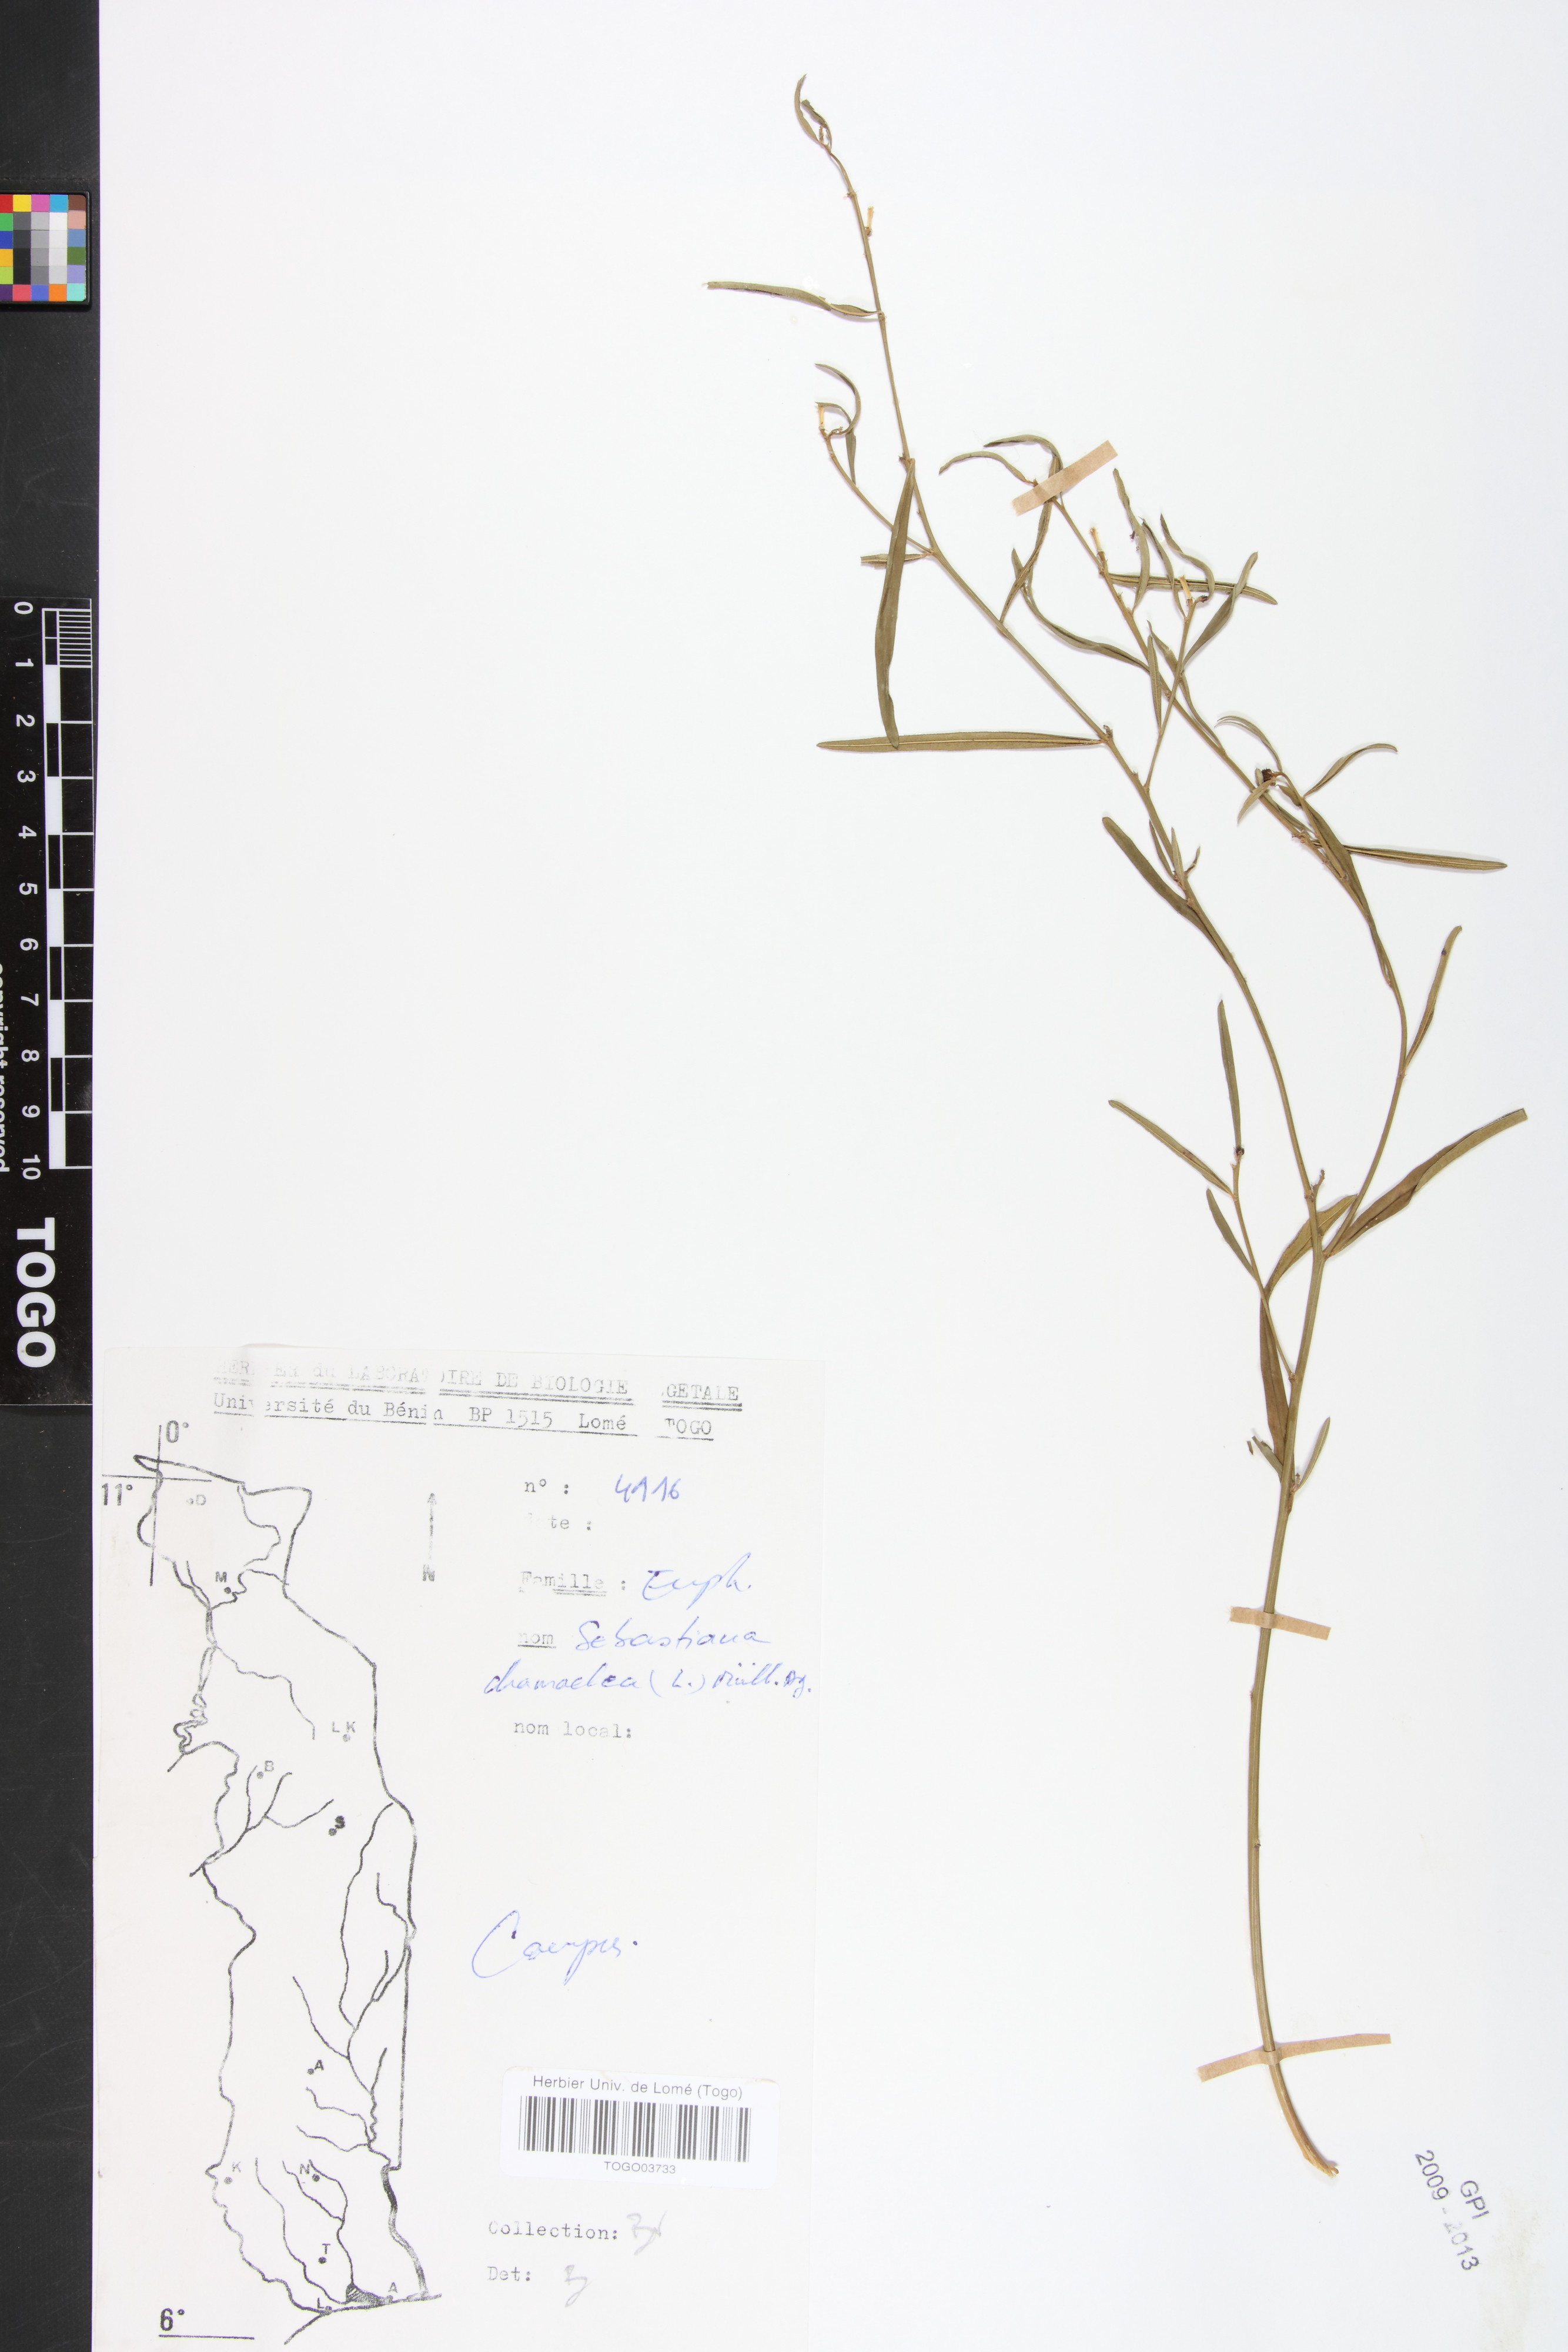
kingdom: Plantae
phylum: Tracheophyta
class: Magnoliopsida
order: Malpighiales
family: Euphorbiaceae
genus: Microstachys
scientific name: Microstachys chamaelea
